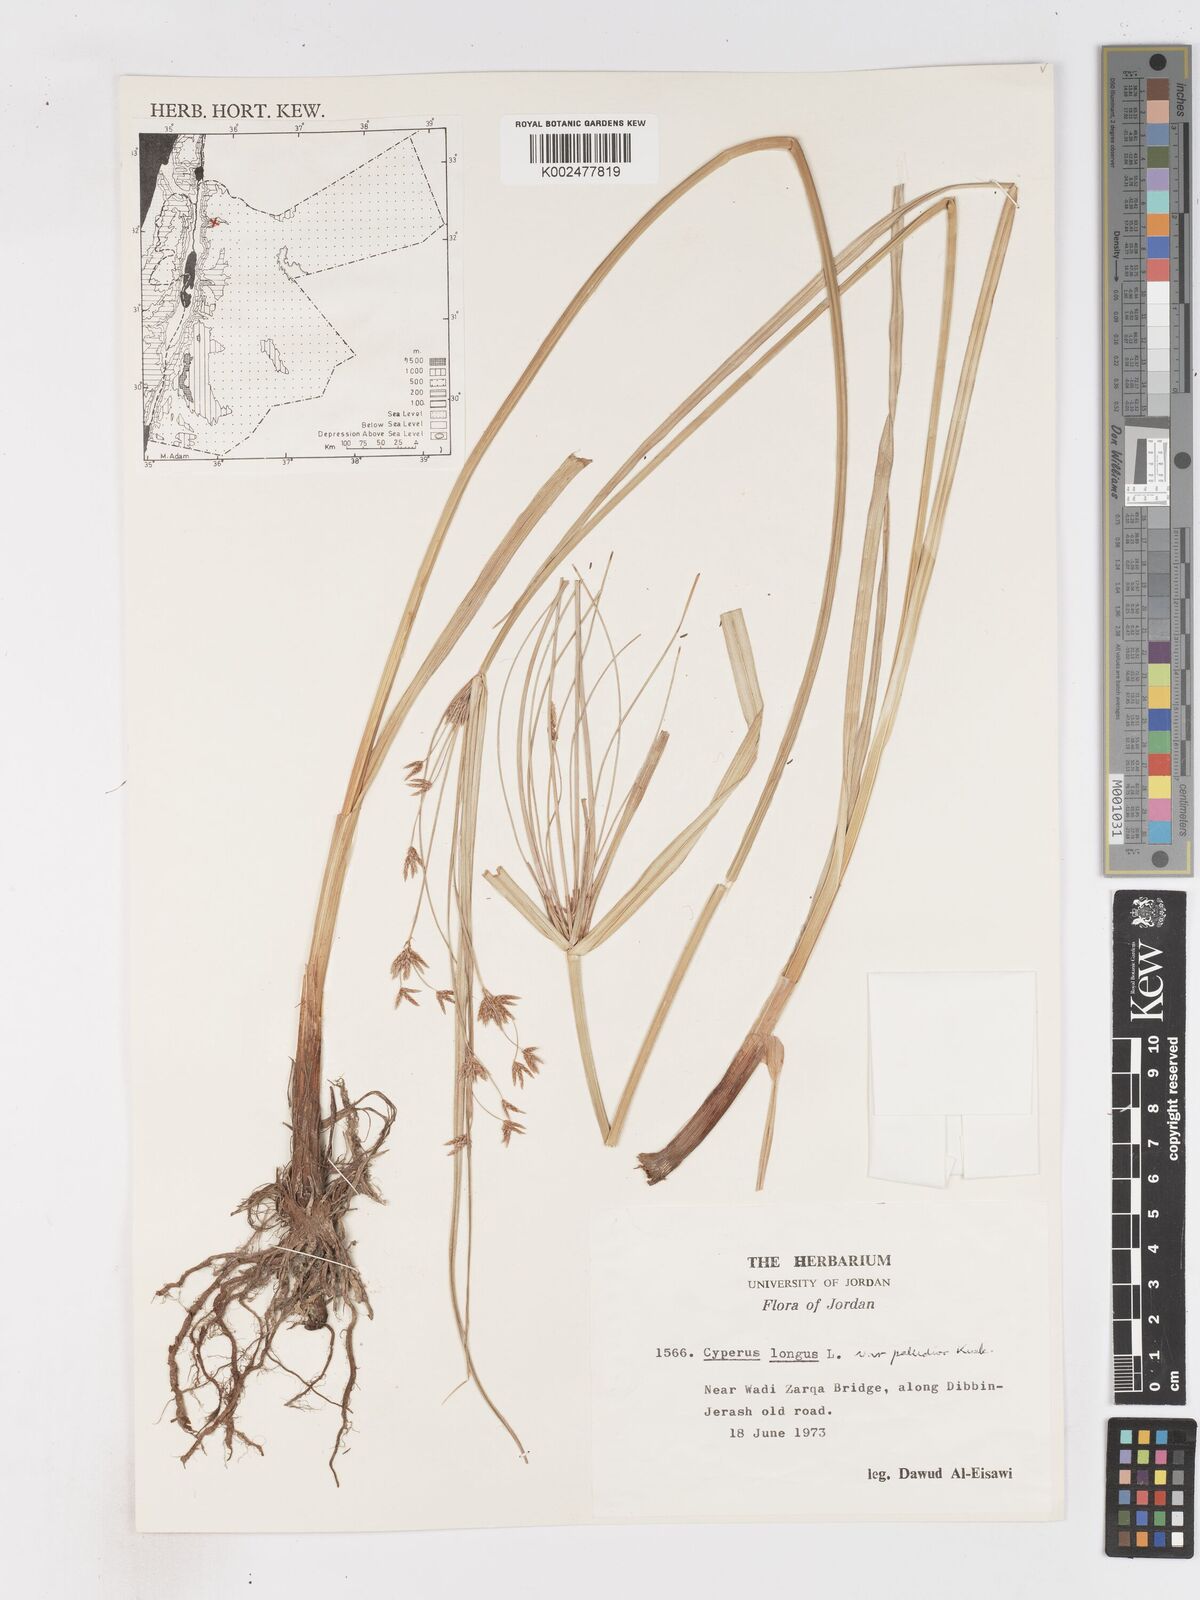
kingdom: Plantae
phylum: Tracheophyta
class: Liliopsida
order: Poales
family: Cyperaceae
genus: Cyperus
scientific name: Cyperus longus
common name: Galingale
